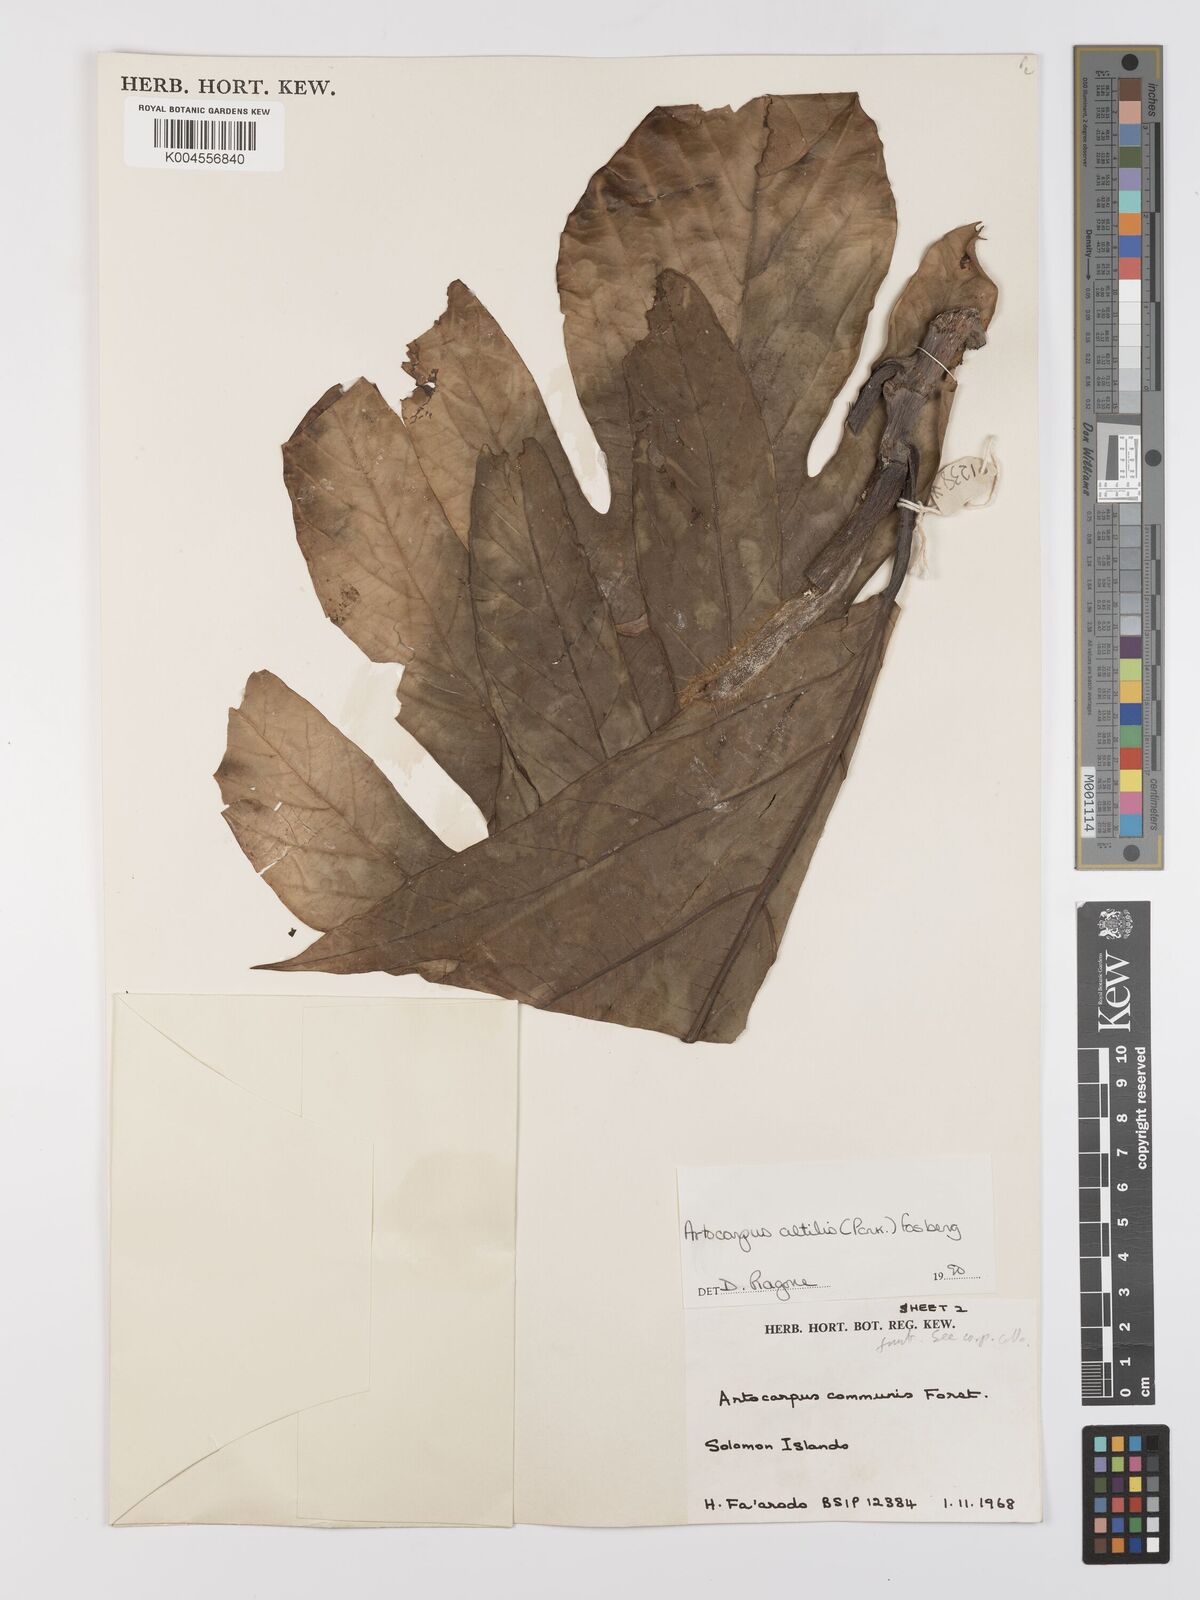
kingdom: Plantae
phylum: Tracheophyta
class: Magnoliopsida
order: Rosales
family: Moraceae
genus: Artocarpus
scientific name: Artocarpus altilis
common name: Breadfruit
